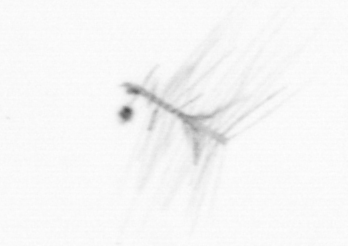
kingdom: Chromista
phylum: Ochrophyta
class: Bacillariophyceae
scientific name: Bacillariophyceae
